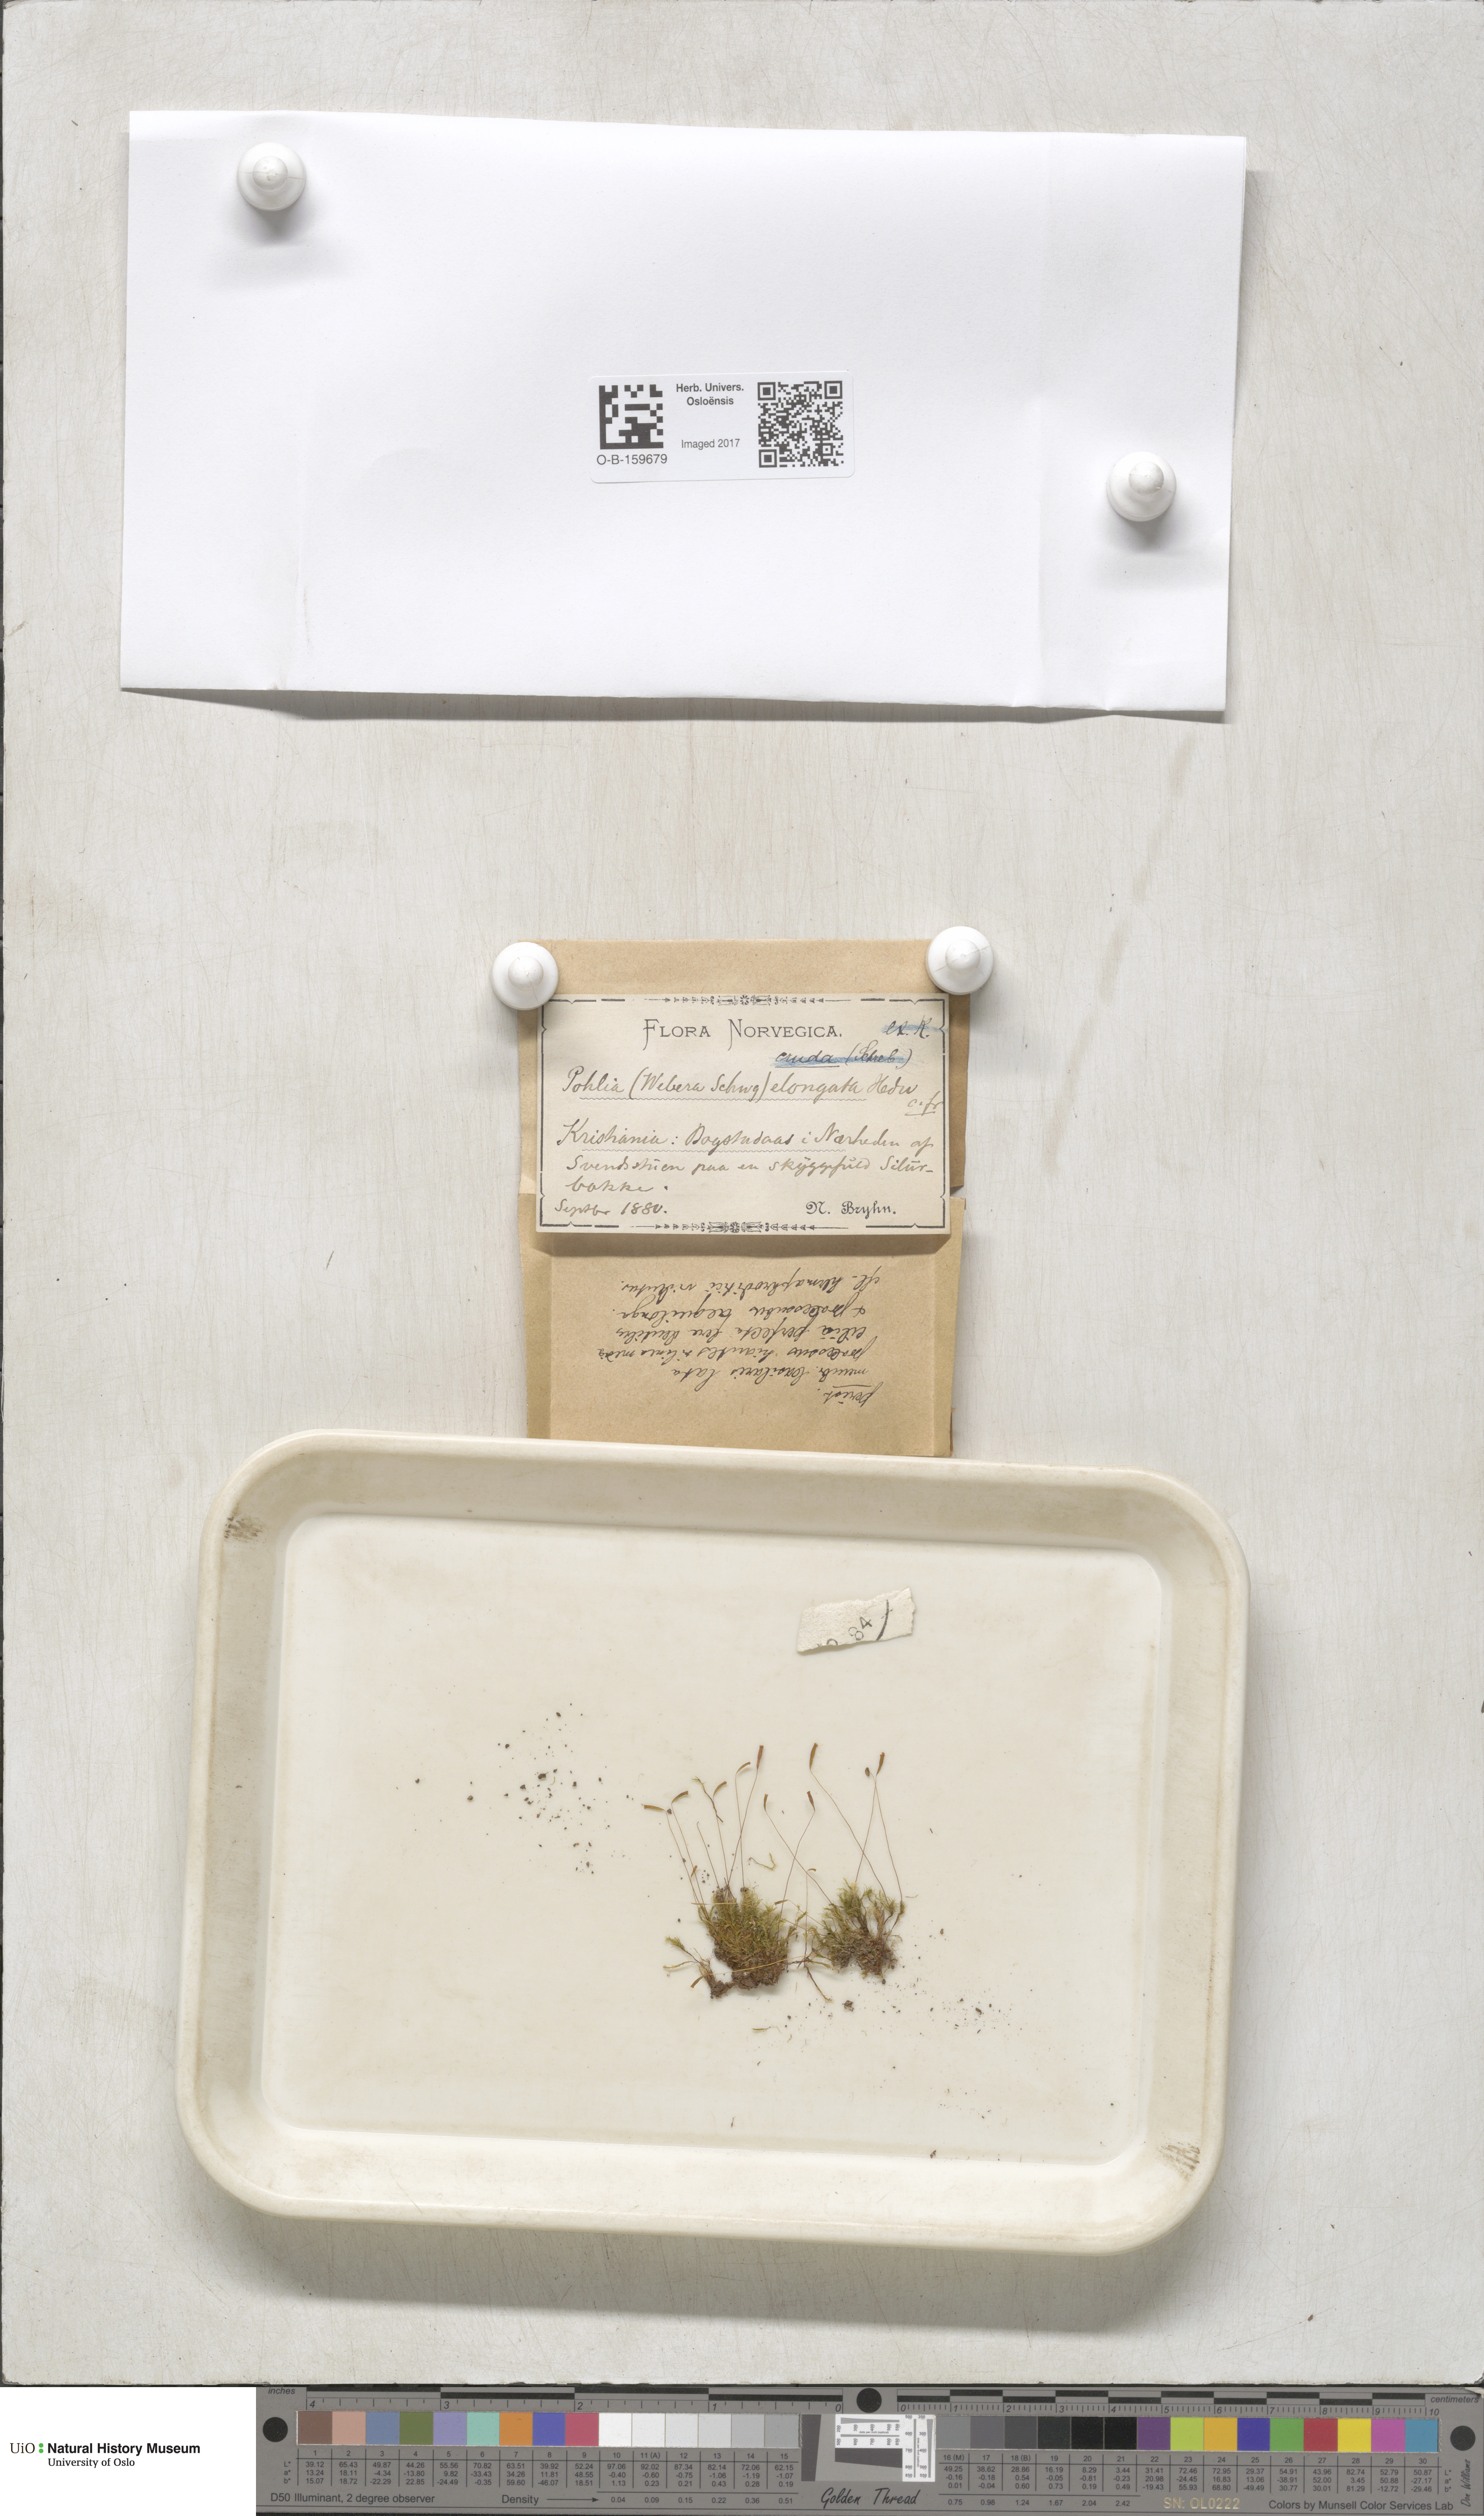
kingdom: Plantae
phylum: Bryophyta
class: Bryopsida
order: Bryales
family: Mniaceae
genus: Pohlia
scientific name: Pohlia elongata
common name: Long-fruited thread-moss
